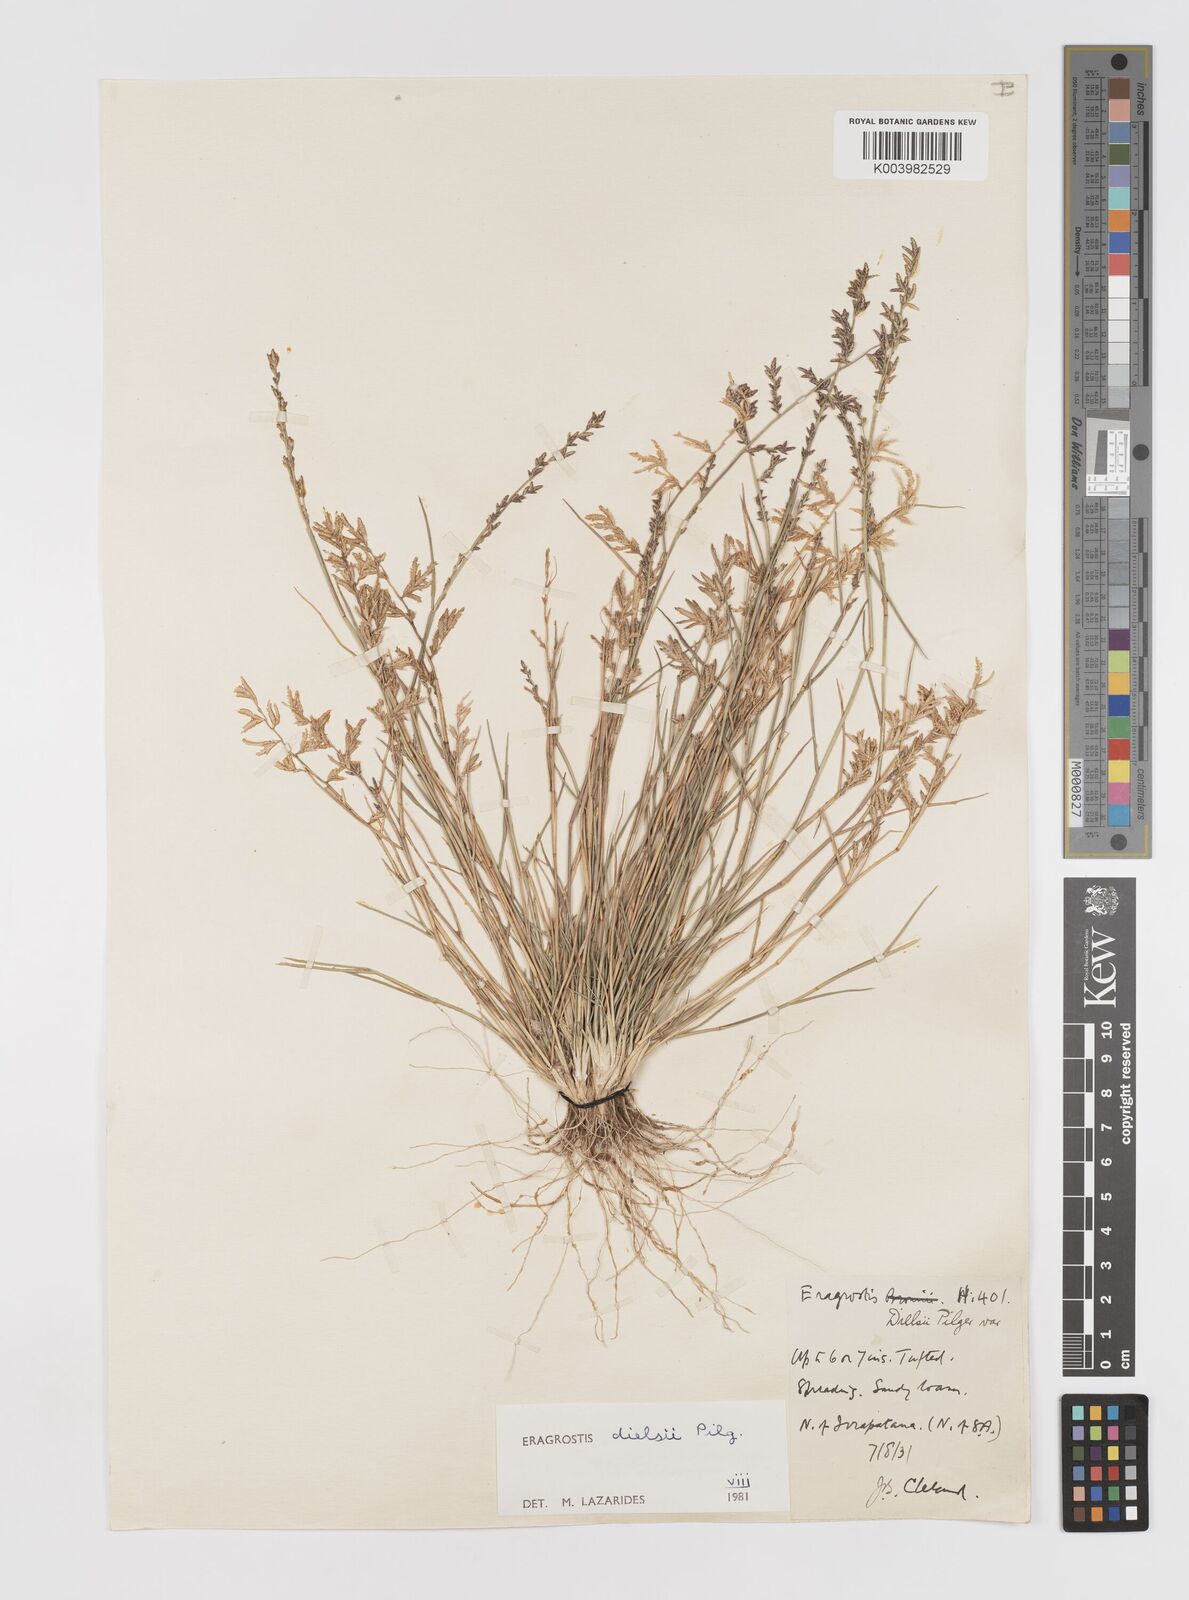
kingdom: Plantae
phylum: Tracheophyta
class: Liliopsida
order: Poales
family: Poaceae
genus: Eragrostis
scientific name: Eragrostis dielsii
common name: Lovegrass
